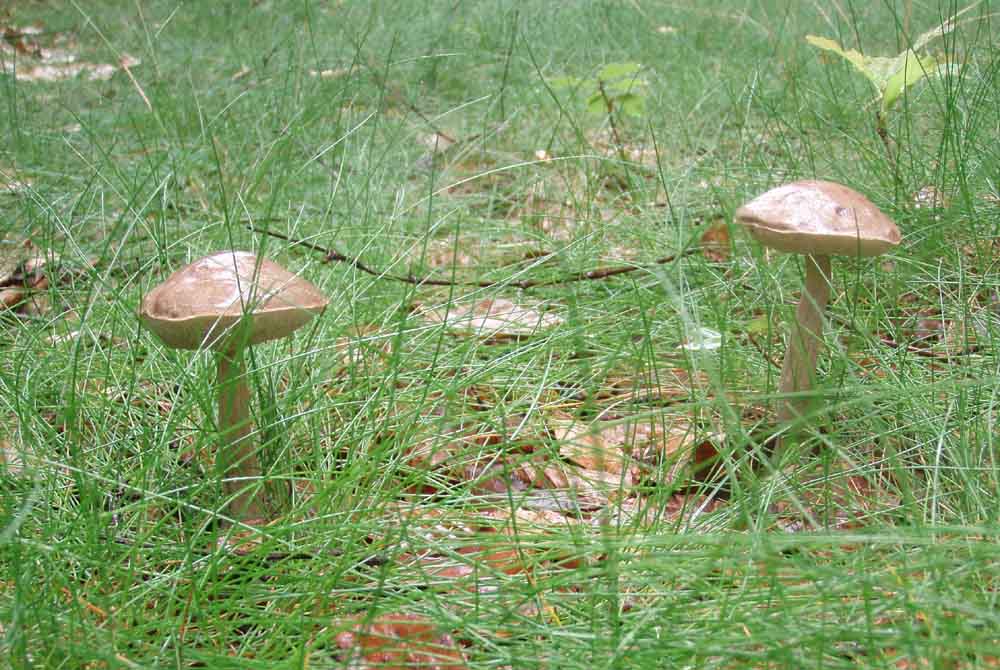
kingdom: Fungi
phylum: Basidiomycota
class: Agaricomycetes
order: Boletales
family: Boletaceae
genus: Leccinum
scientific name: Leccinum cyaneobasileucum
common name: almindelig skælrørhat
